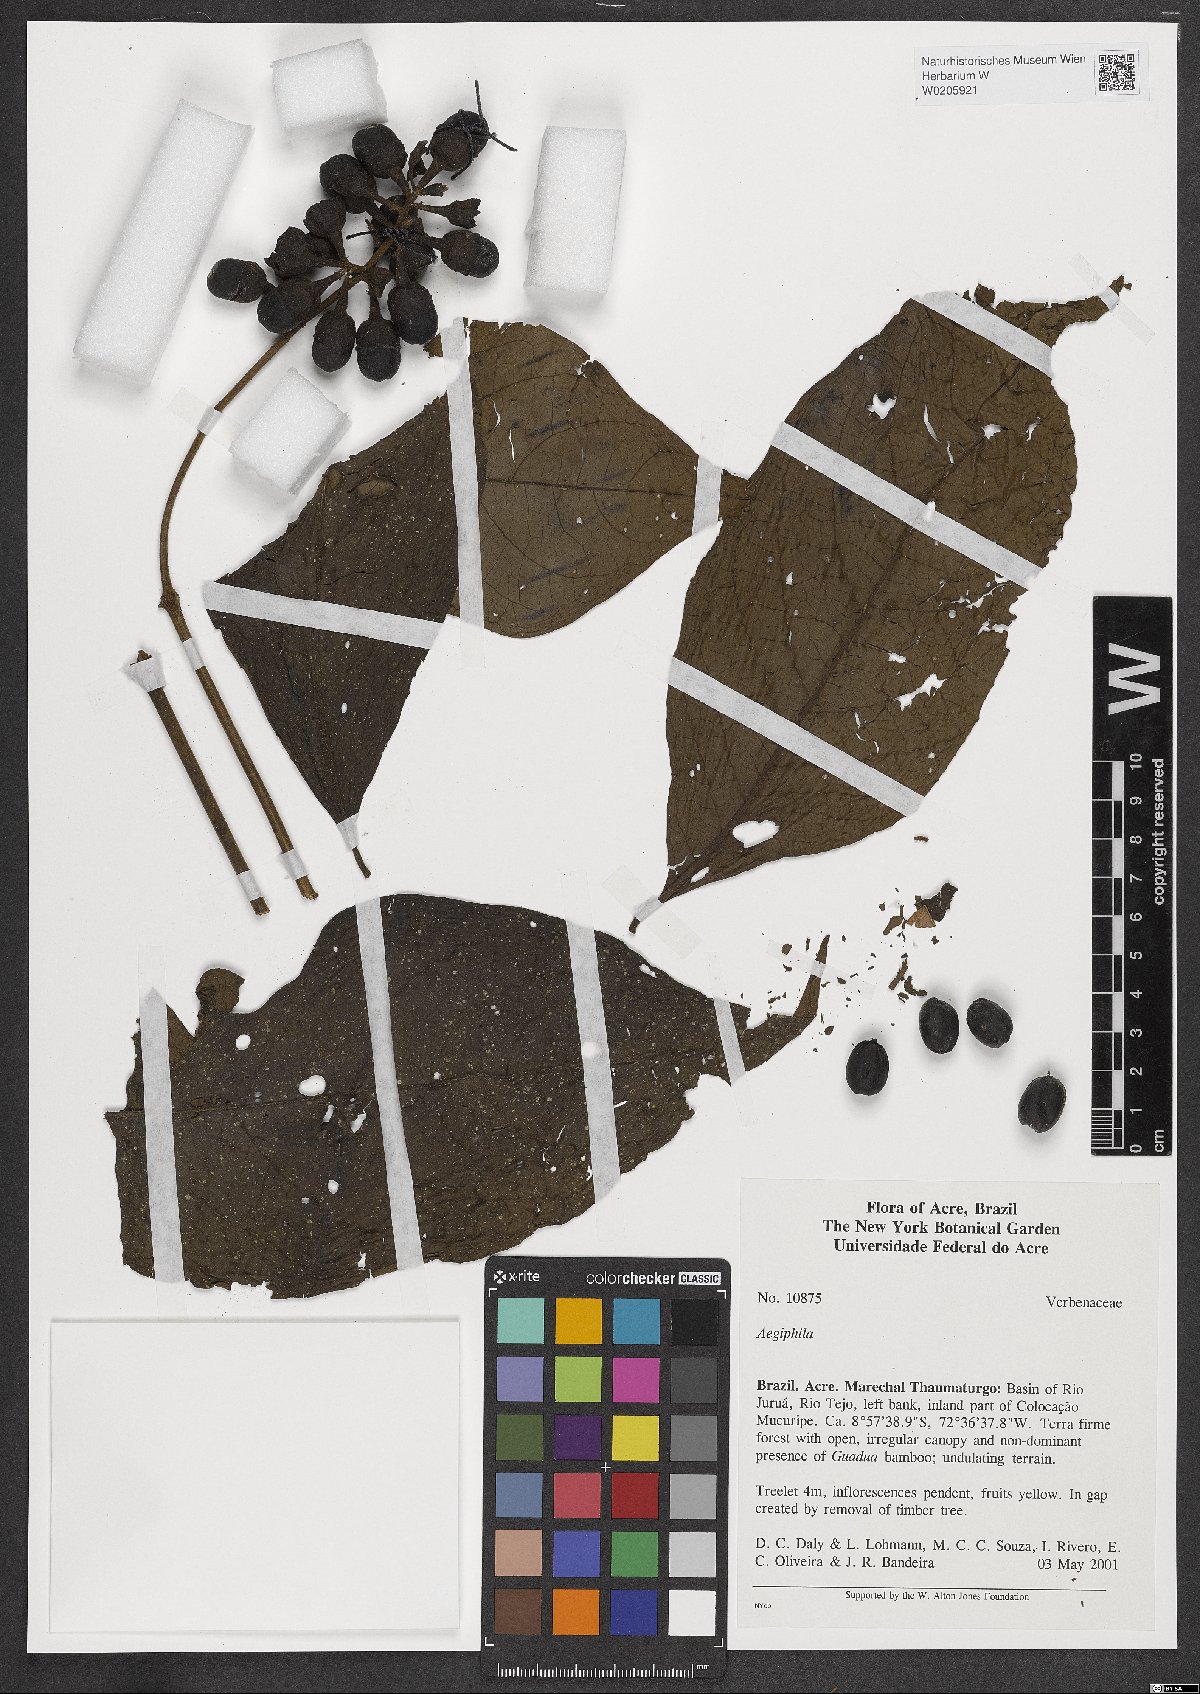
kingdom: Plantae
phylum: Tracheophyta
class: Magnoliopsida
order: Lamiales
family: Lamiaceae
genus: Aegiphila
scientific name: Aegiphila
